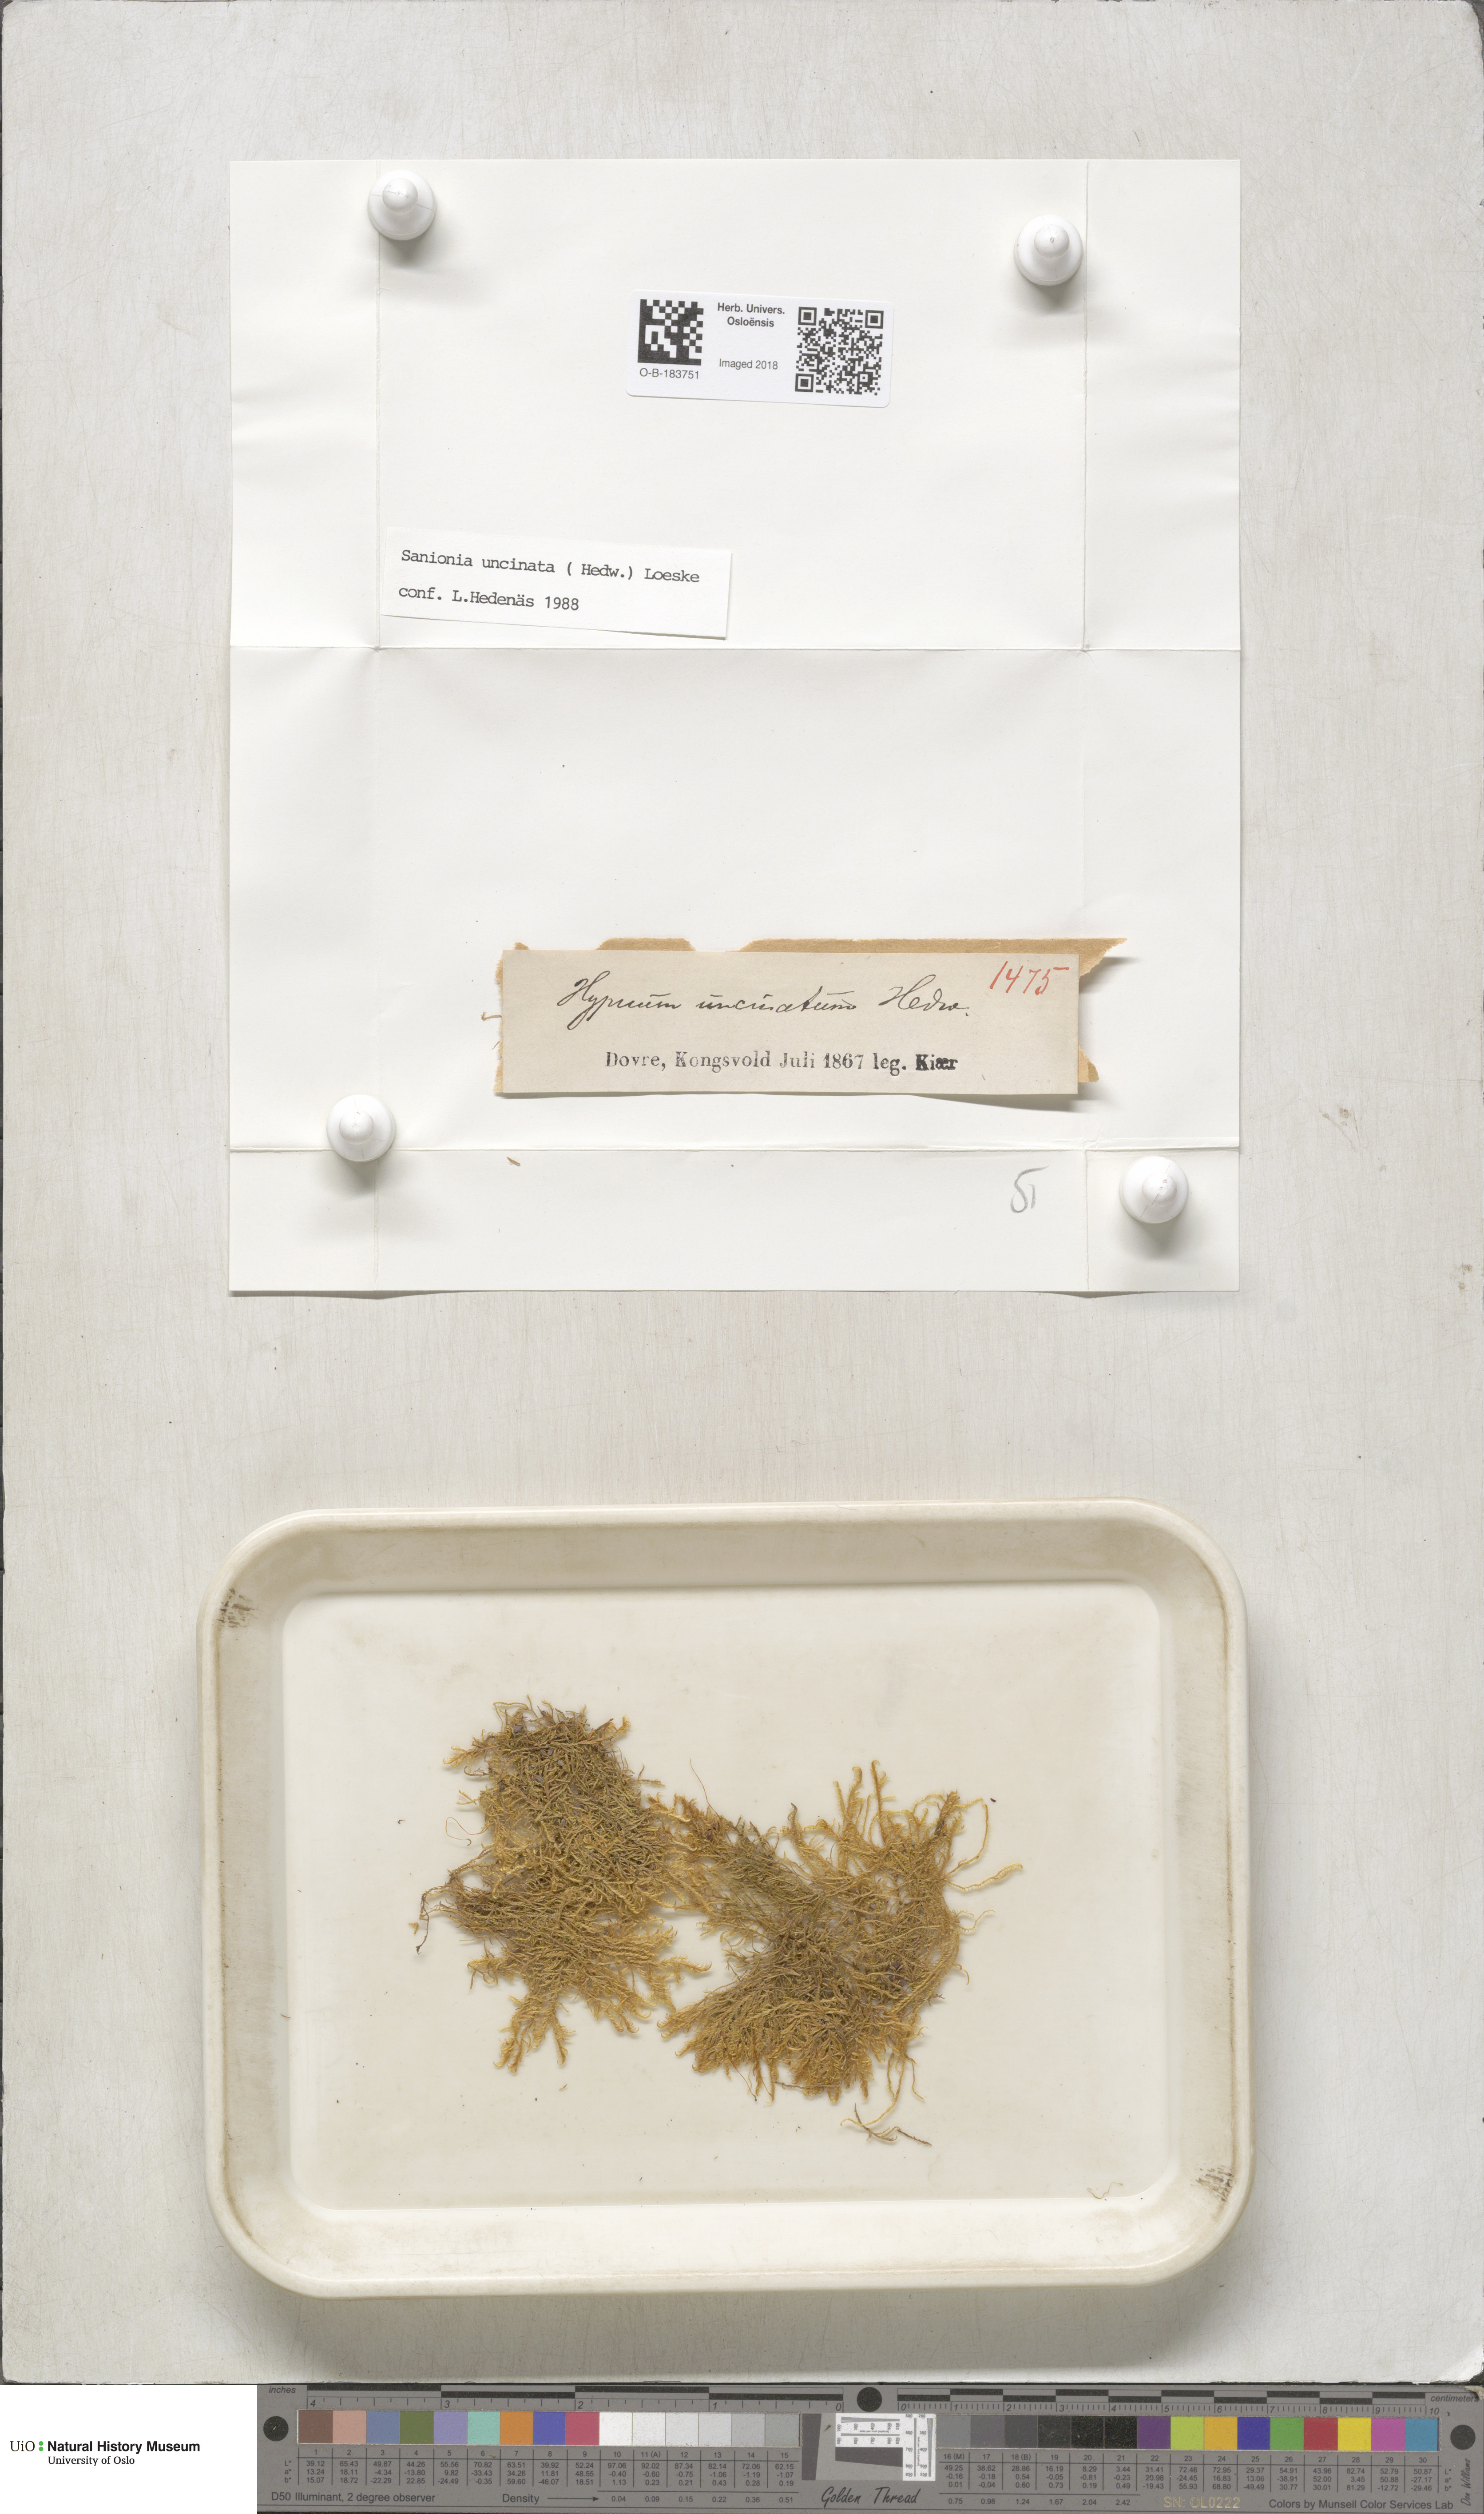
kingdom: Plantae
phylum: Bryophyta
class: Bryopsida
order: Hypnales
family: Scorpidiaceae
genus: Sanionia
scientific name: Sanionia uncinata
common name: Sickle moss
